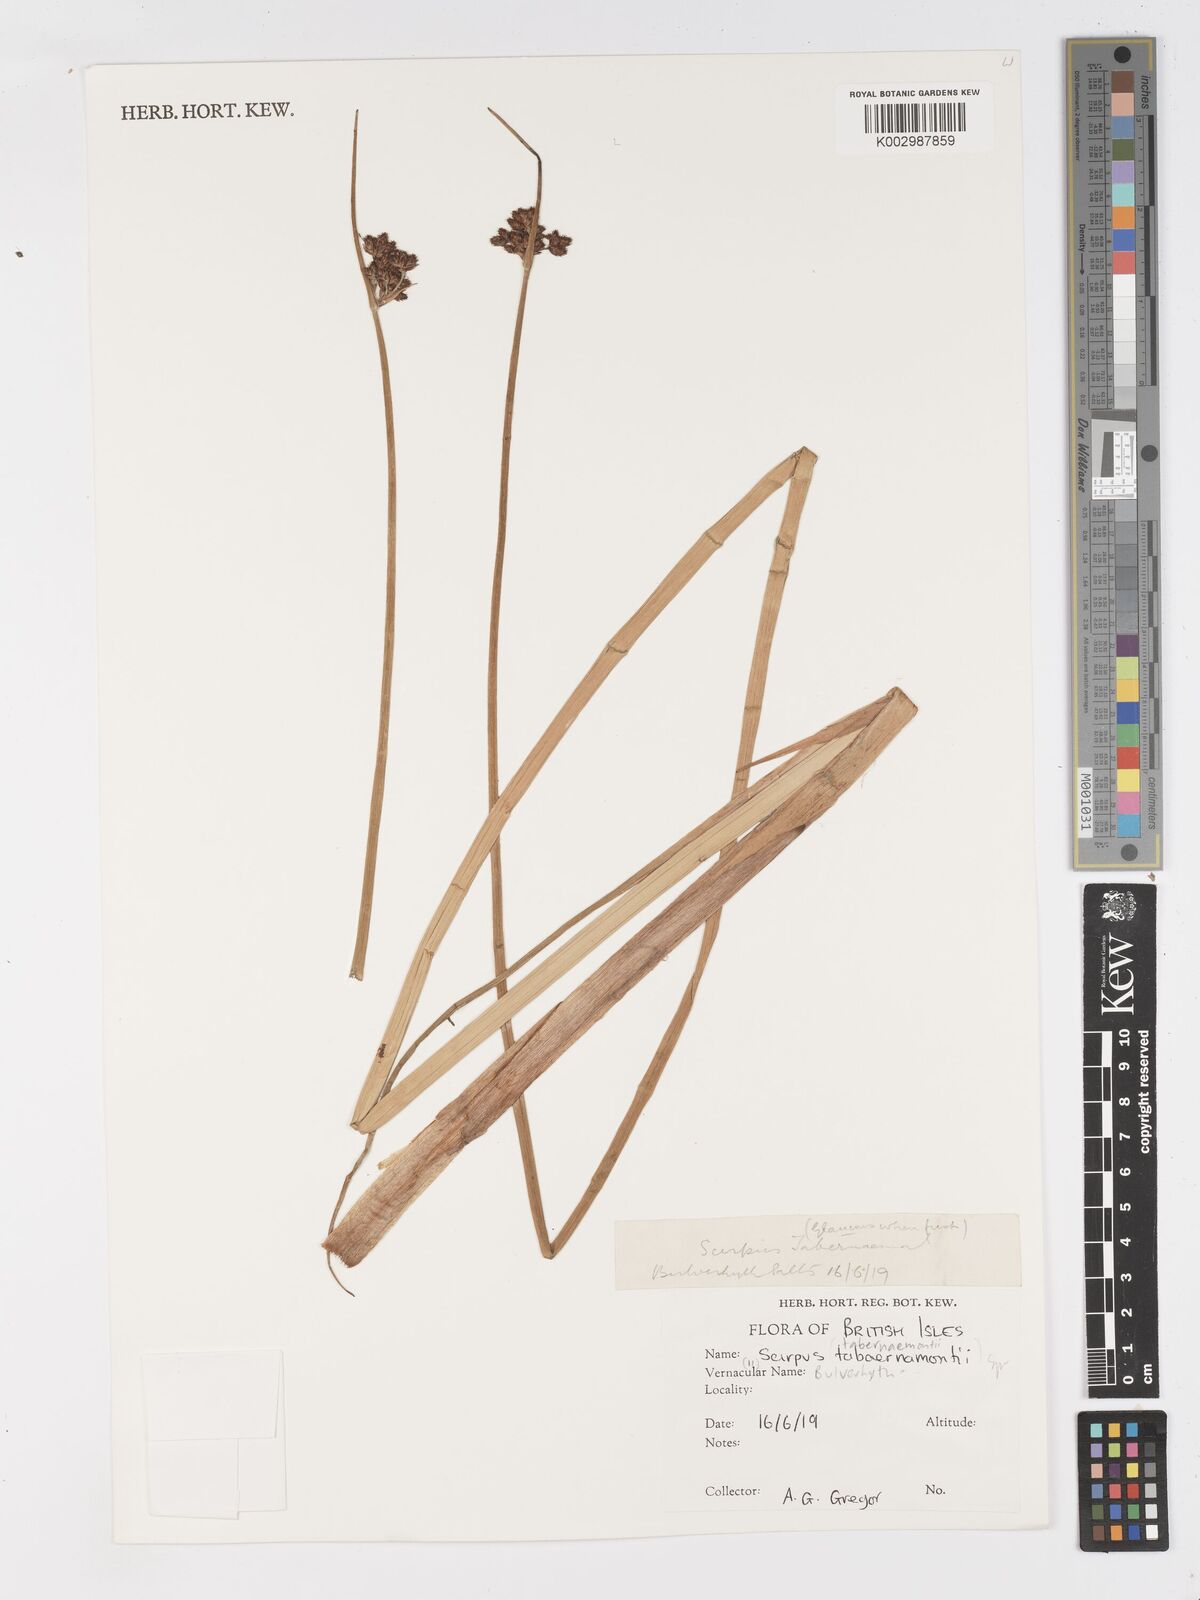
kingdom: Plantae
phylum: Tracheophyta
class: Liliopsida
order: Poales
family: Cyperaceae
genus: Schoenoplectus
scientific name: Schoenoplectus tabernaemontani
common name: Grey club-rush
